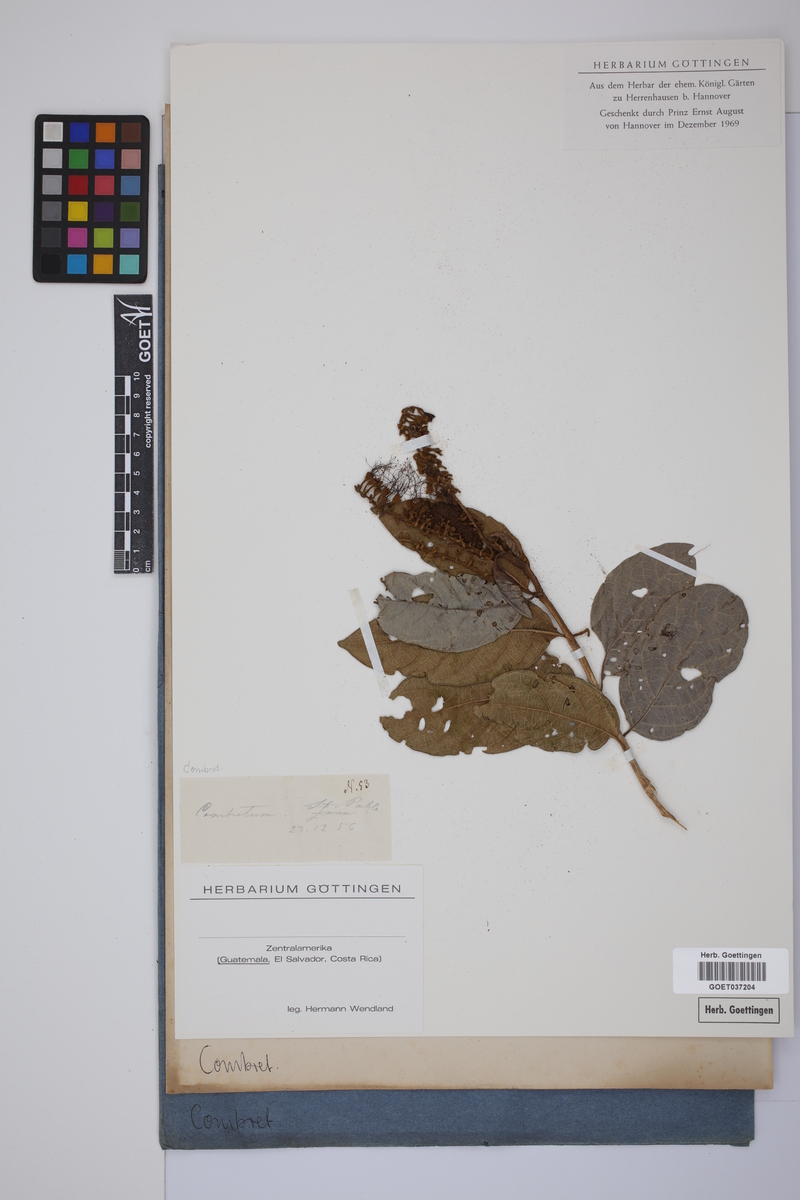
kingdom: Plantae
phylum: Tracheophyta
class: Magnoliopsida
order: Myrtales
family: Combretaceae
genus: Combretum
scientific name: Combretum
